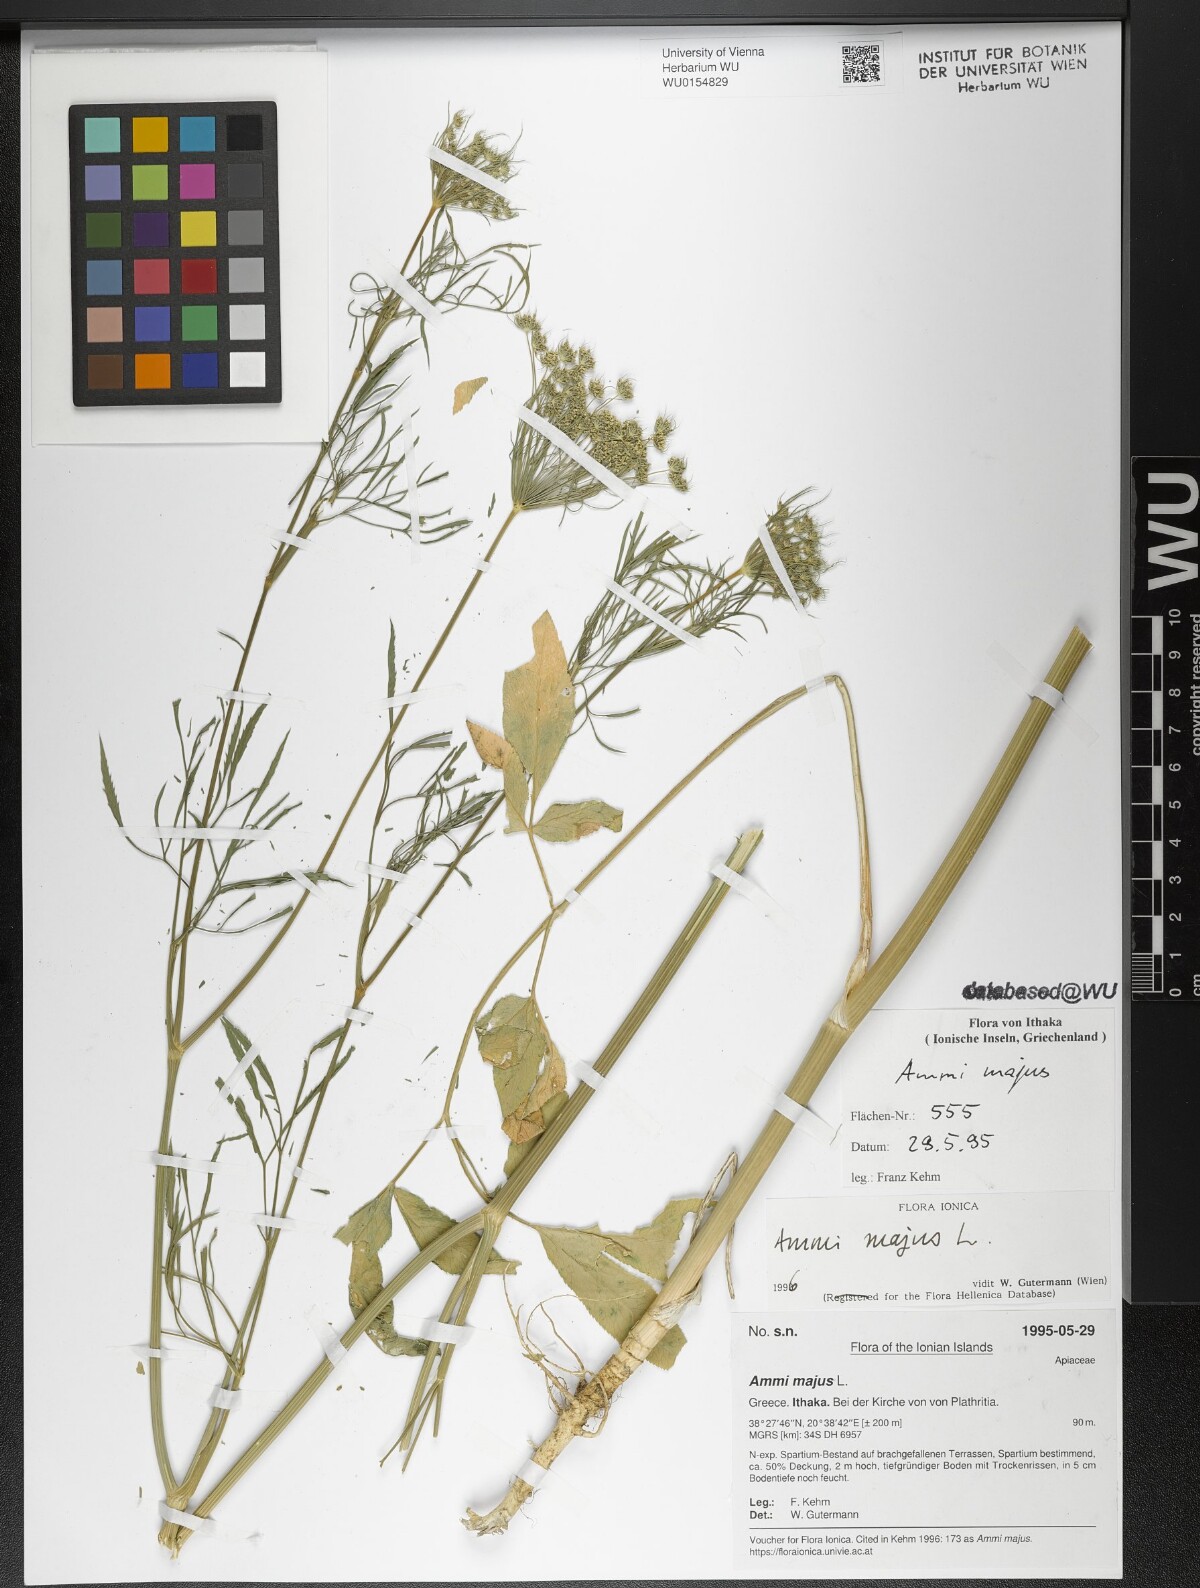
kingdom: Plantae
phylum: Tracheophyta
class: Magnoliopsida
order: Apiales
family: Apiaceae
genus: Ammi
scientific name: Ammi majus
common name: Bullwort
